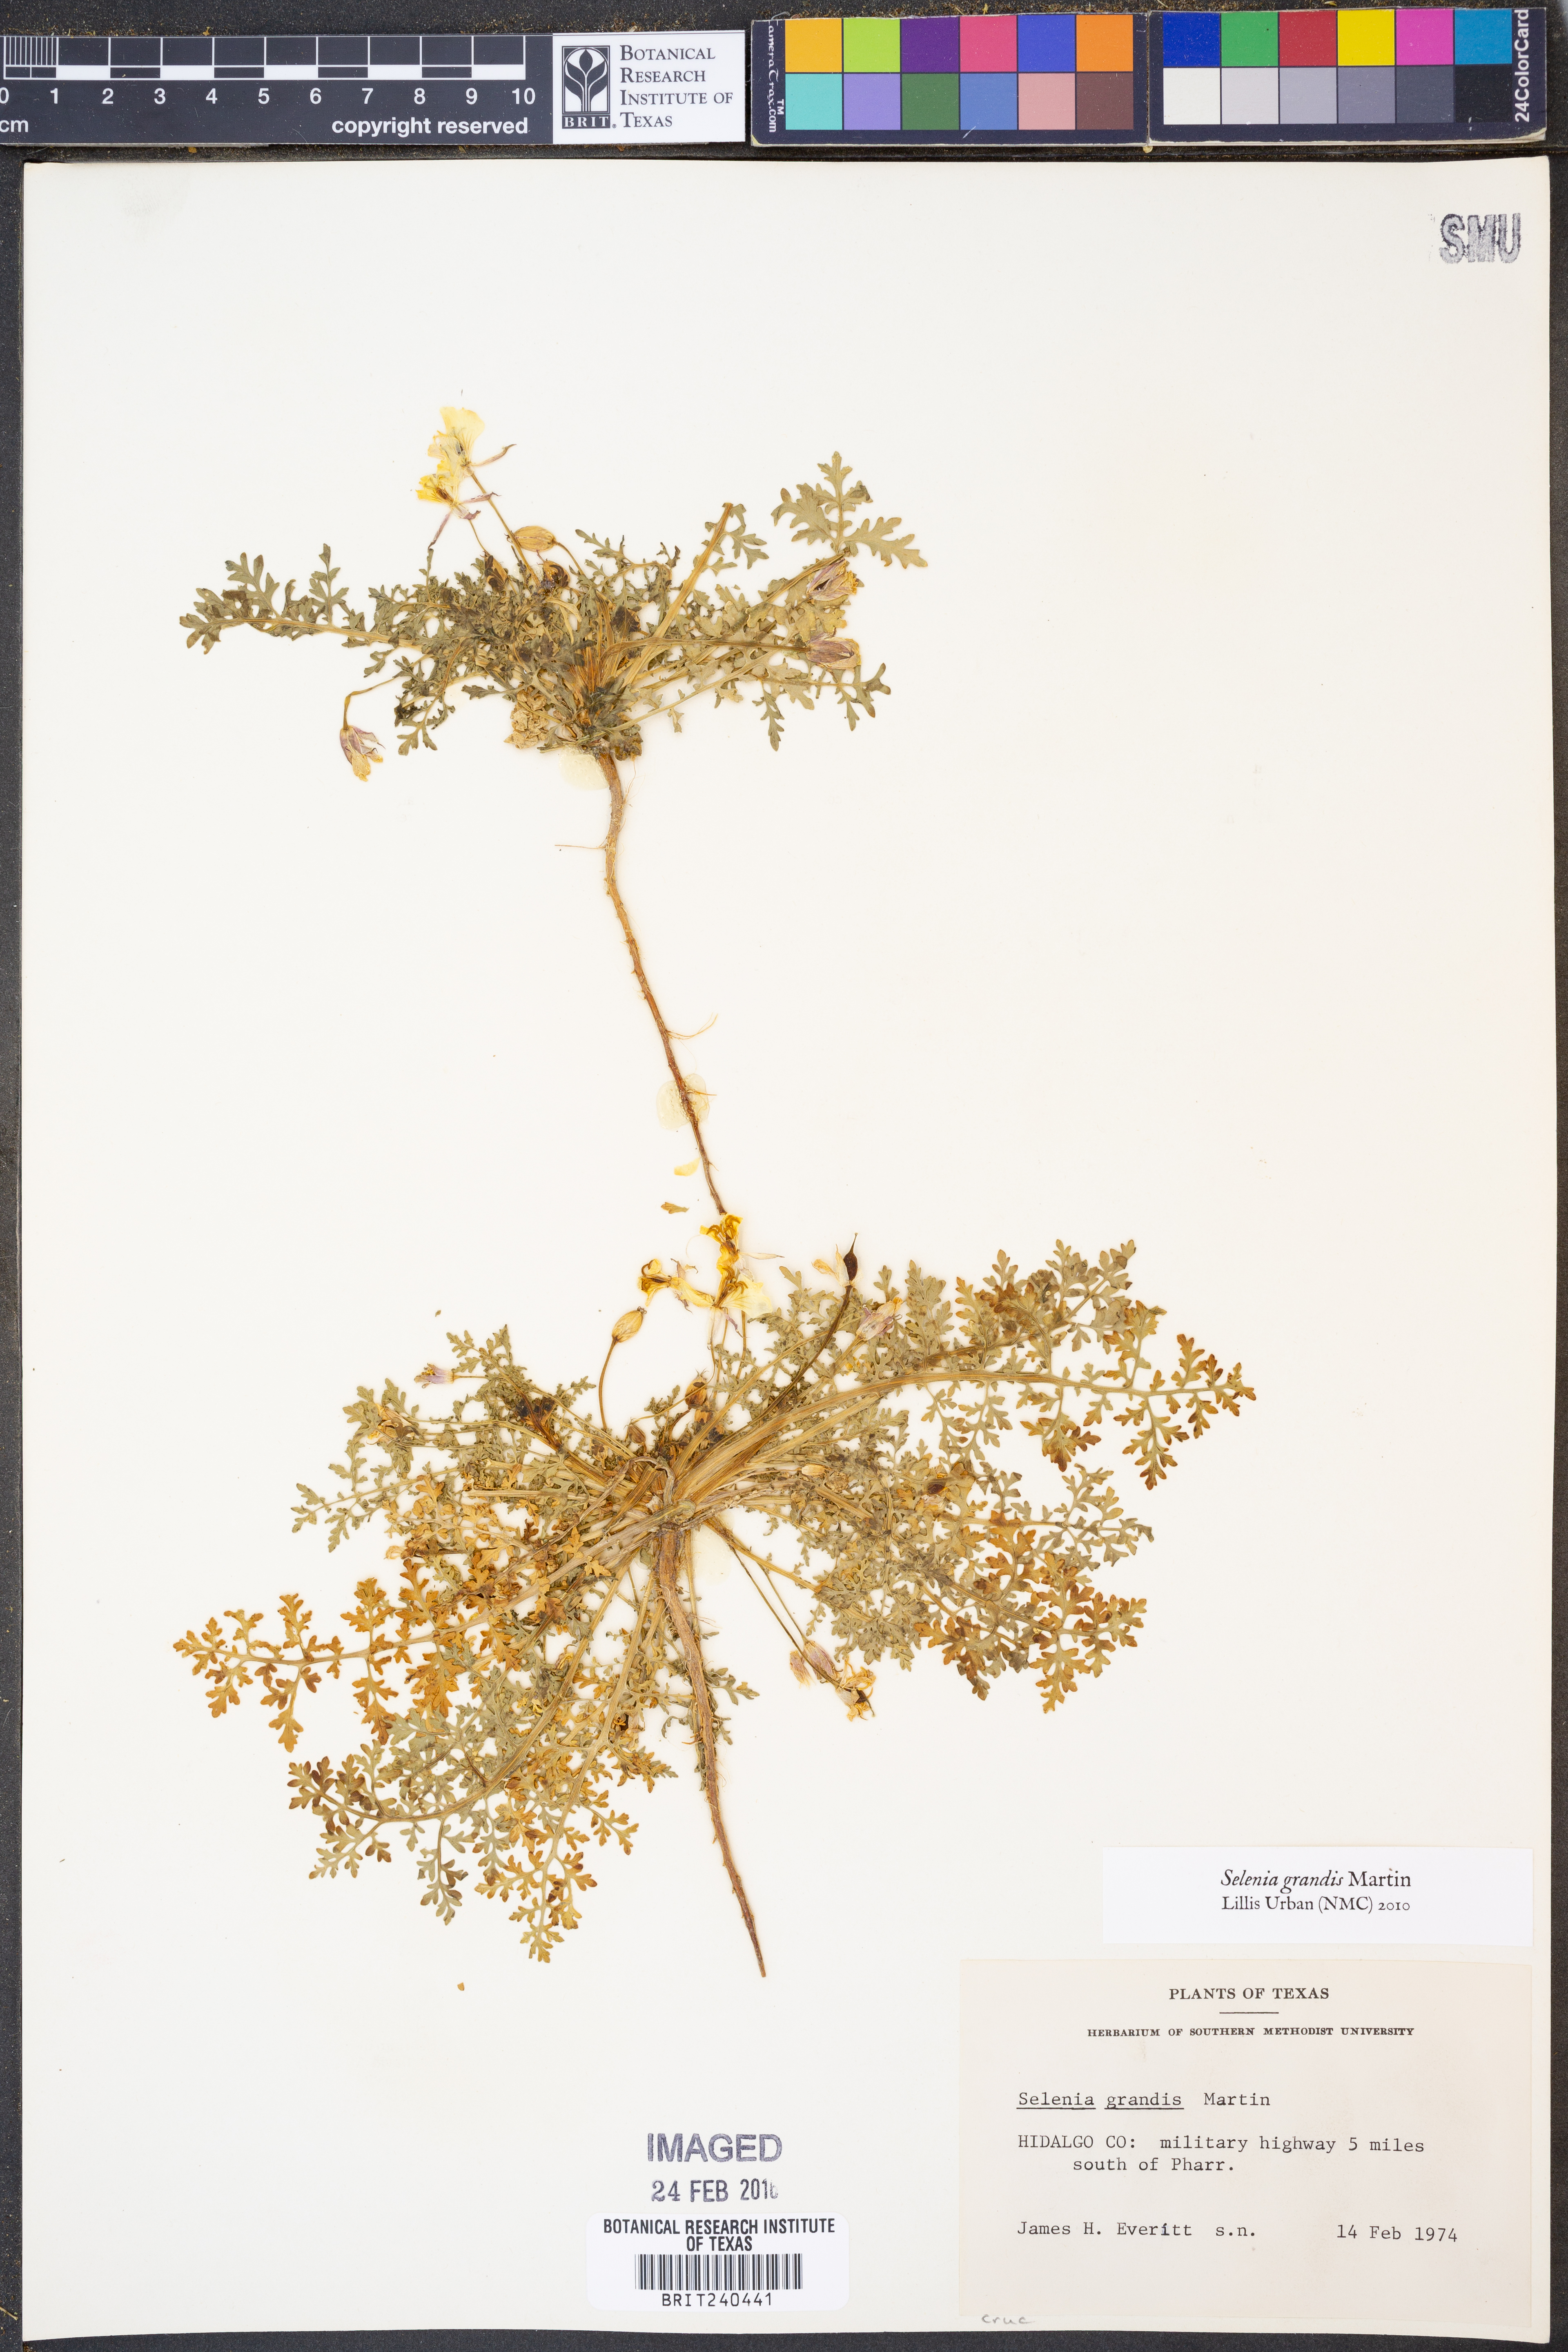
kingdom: Plantae
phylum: Tracheophyta
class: Magnoliopsida
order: Brassicales
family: Brassicaceae
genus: Selenia
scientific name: Selenia grandis
